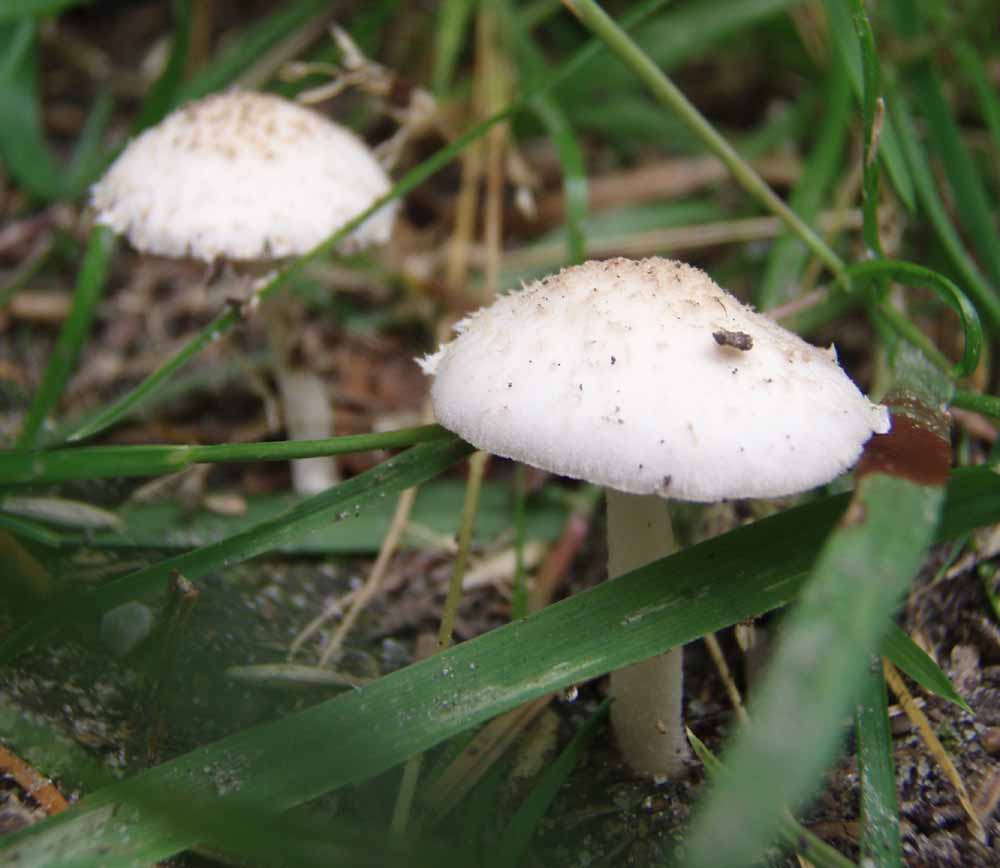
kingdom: Fungi
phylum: Basidiomycota
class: Agaricomycetes
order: Agaricales
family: Psathyrellaceae
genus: Candolleomyces
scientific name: Candolleomyces candolleanus
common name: Candolles mørkhat
